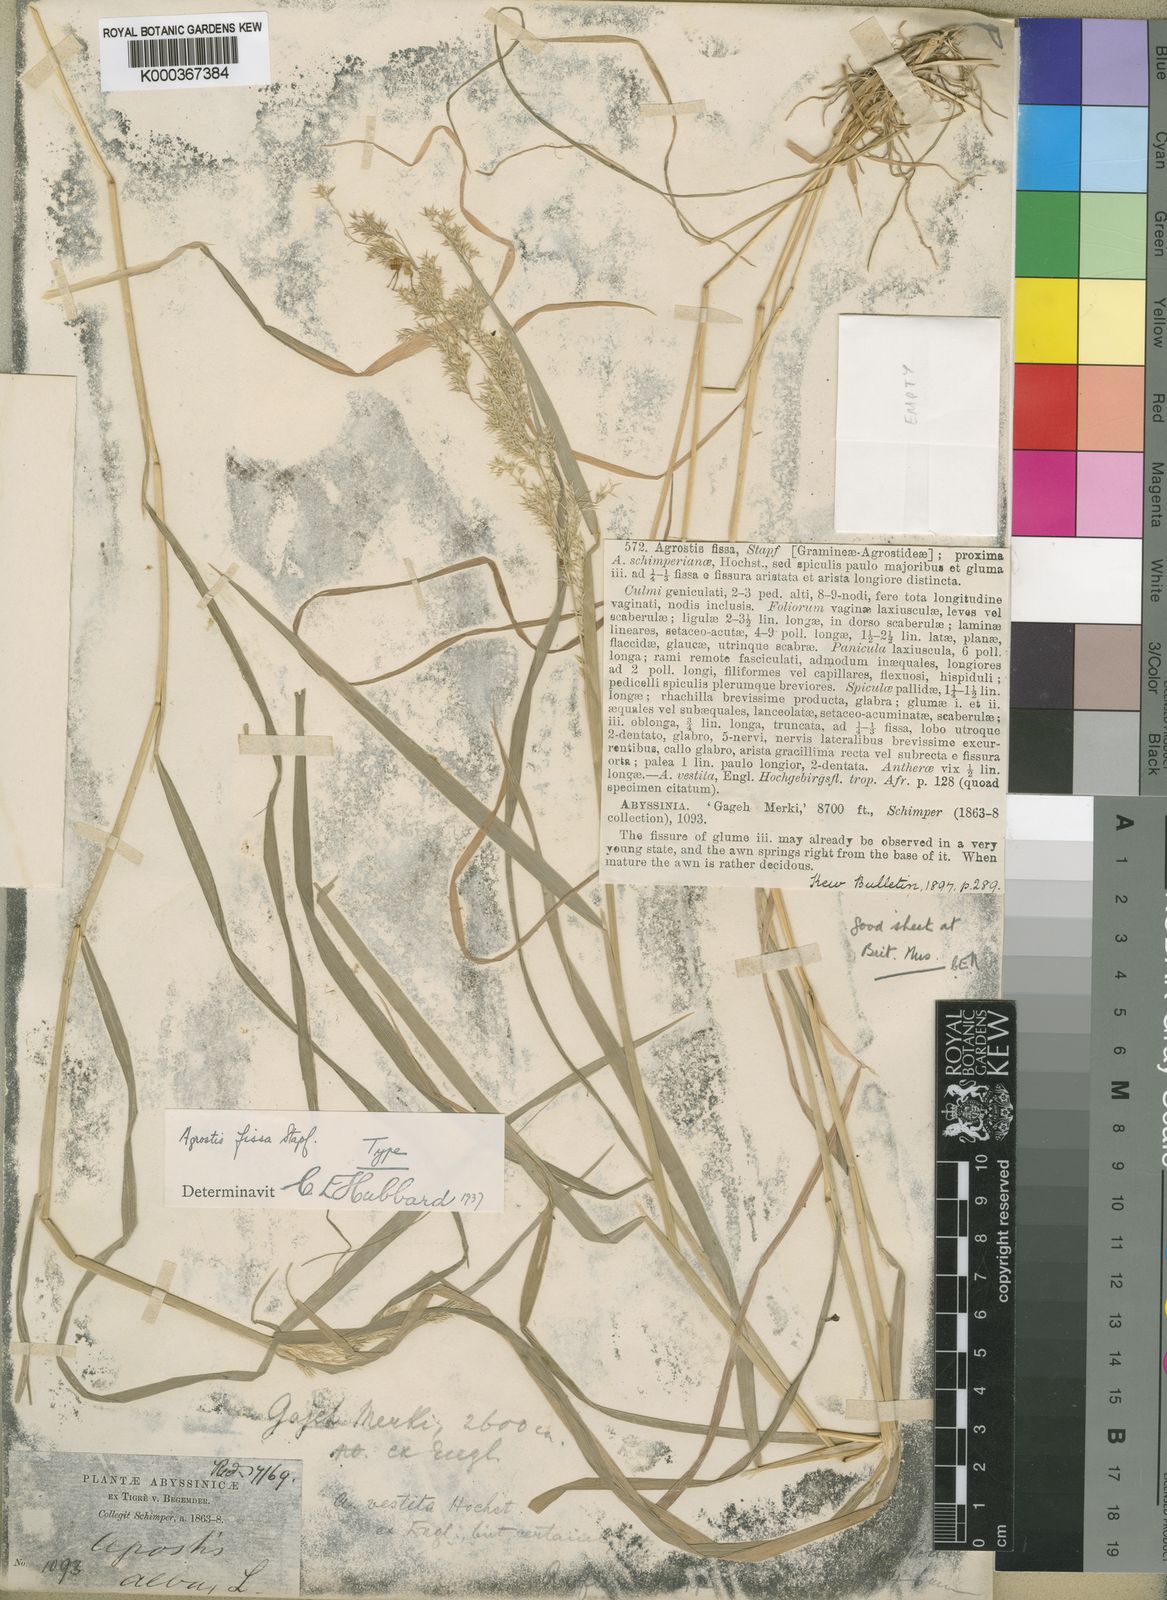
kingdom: Plantae
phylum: Tracheophyta
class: Liliopsida
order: Poales
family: Poaceae
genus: Polypogon
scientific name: Polypogon schimperianus
